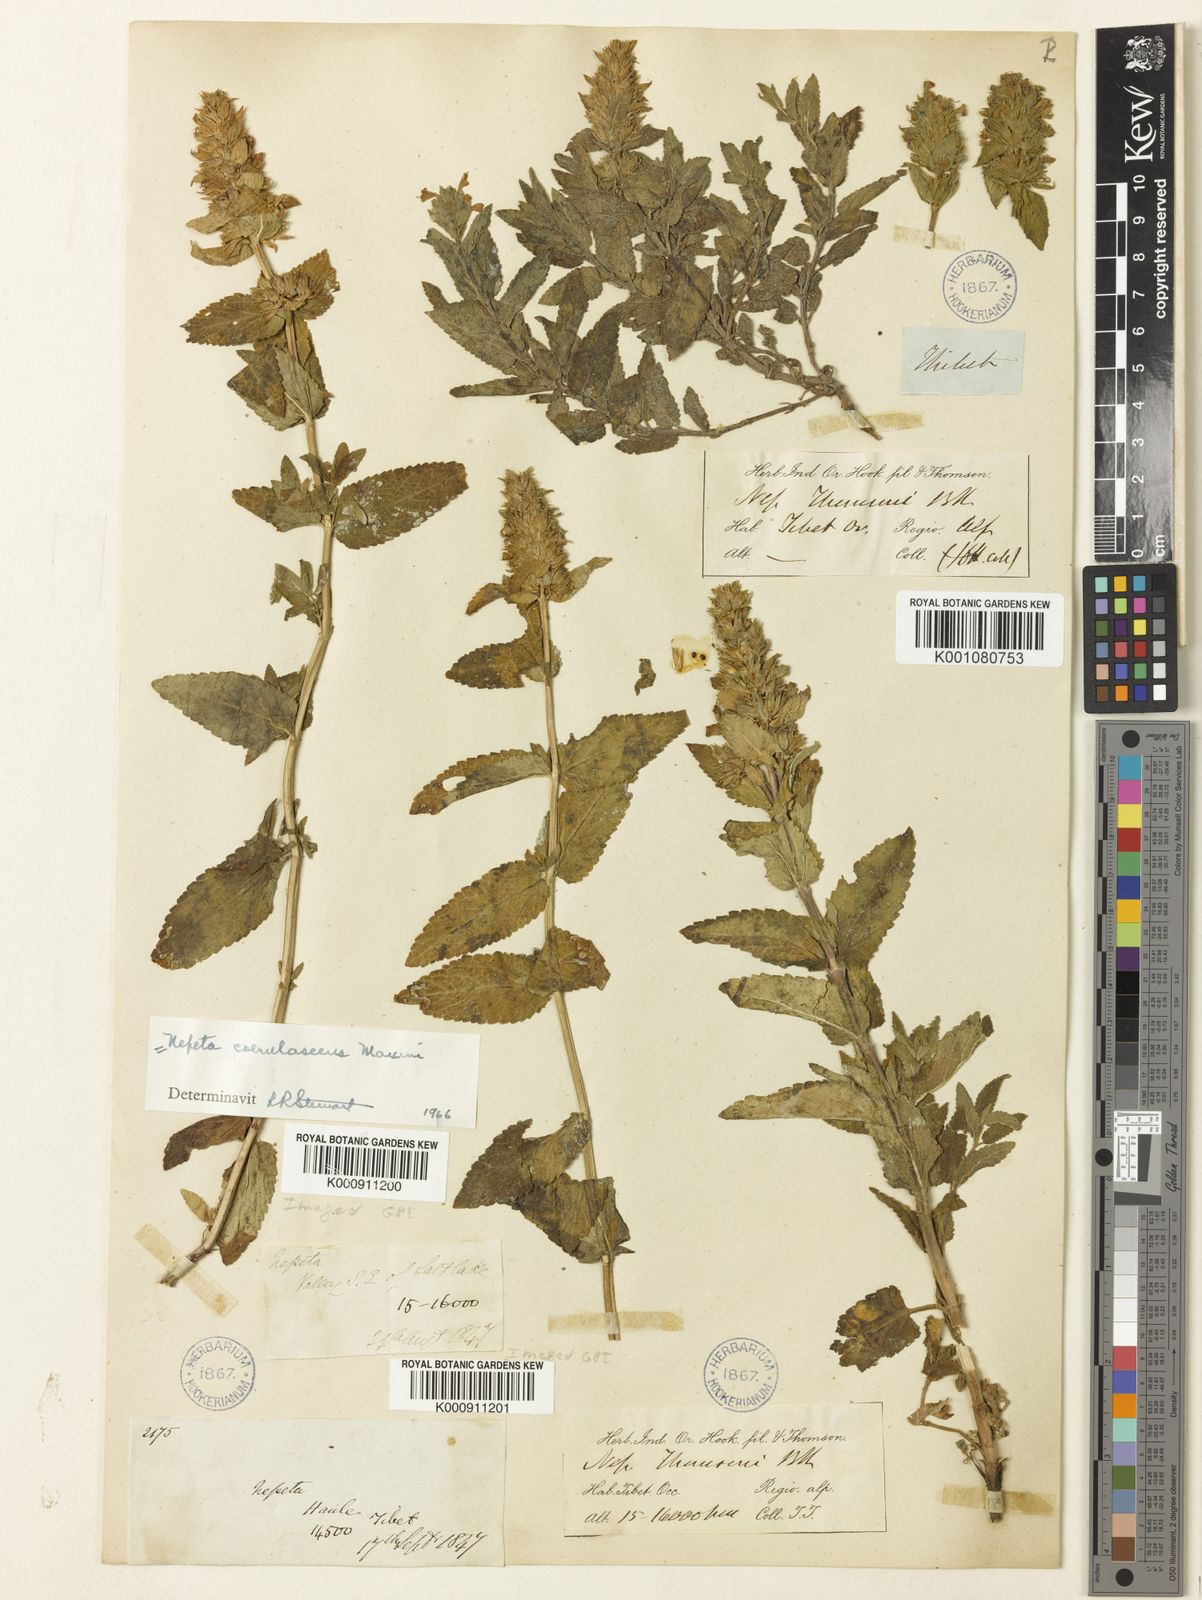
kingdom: Plantae
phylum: Tracheophyta
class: Magnoliopsida
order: Lamiales
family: Lamiaceae
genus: Nepeta
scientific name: Nepeta coerulescens
